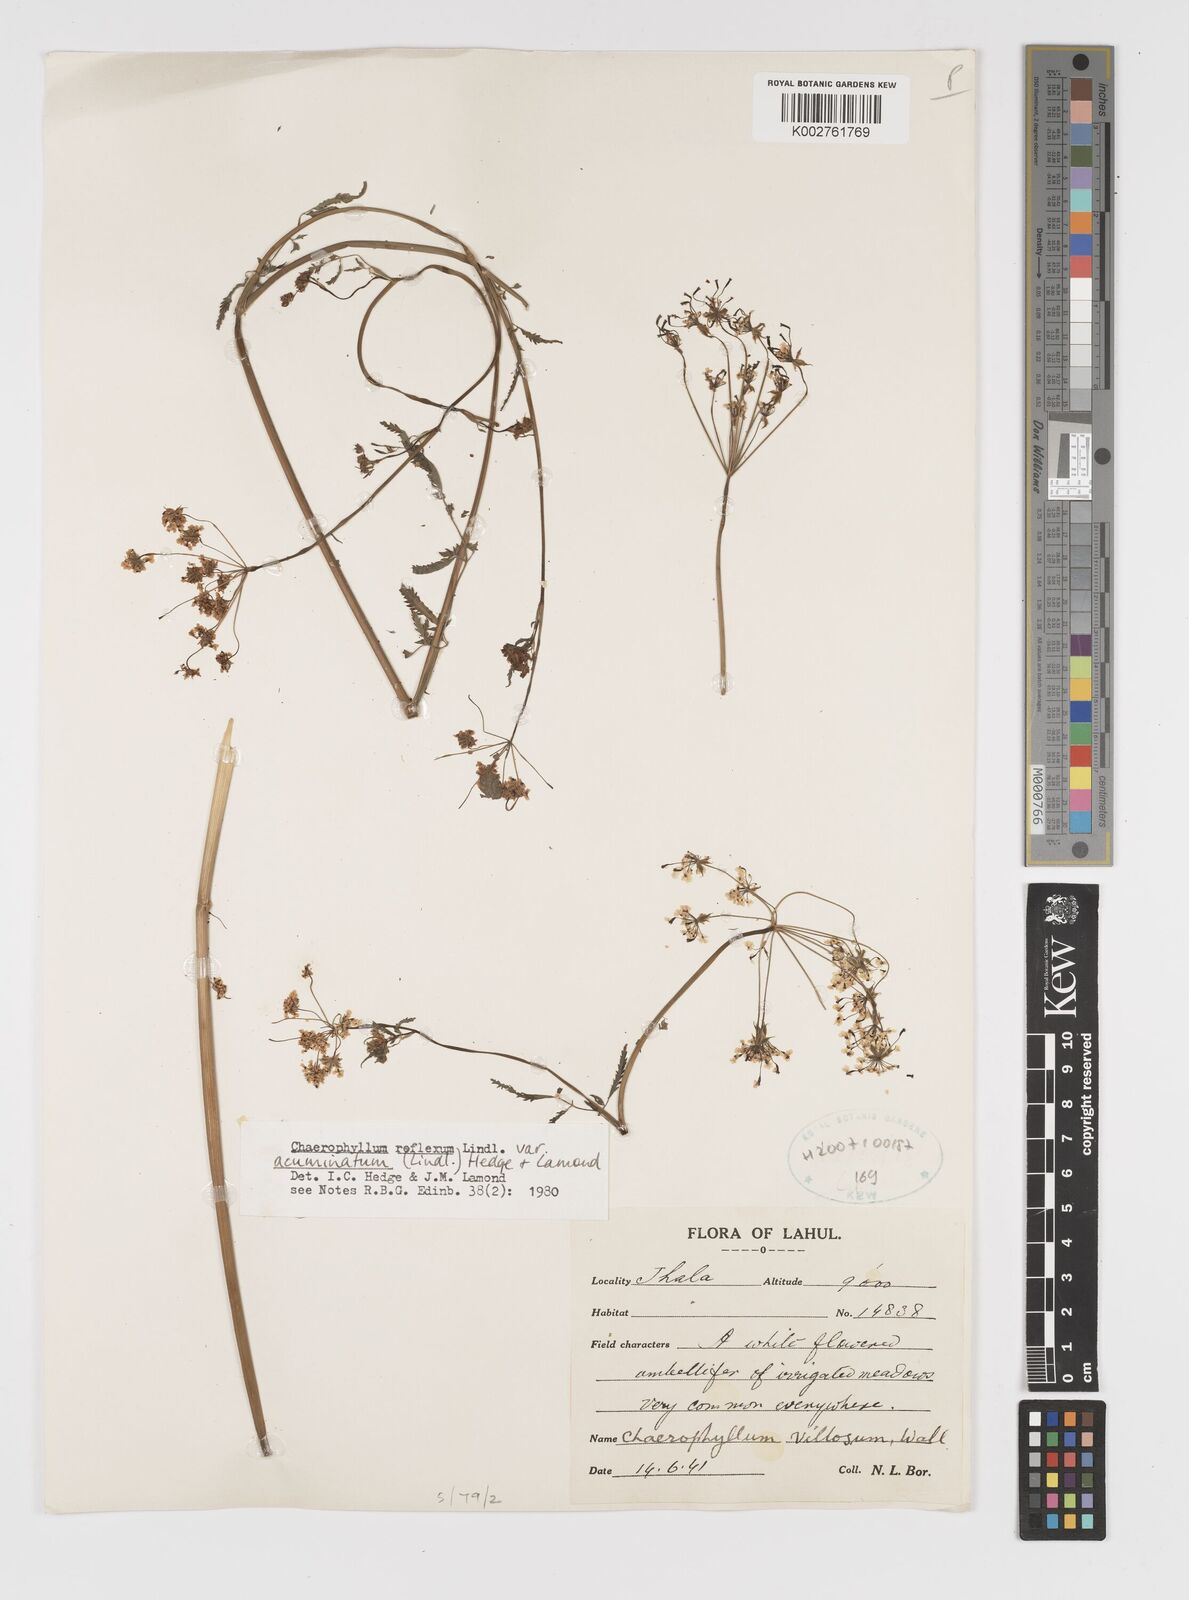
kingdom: Plantae
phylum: Tracheophyta
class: Magnoliopsida
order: Apiales
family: Apiaceae
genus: Chaerophyllum
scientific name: Chaerophyllum reflexum
